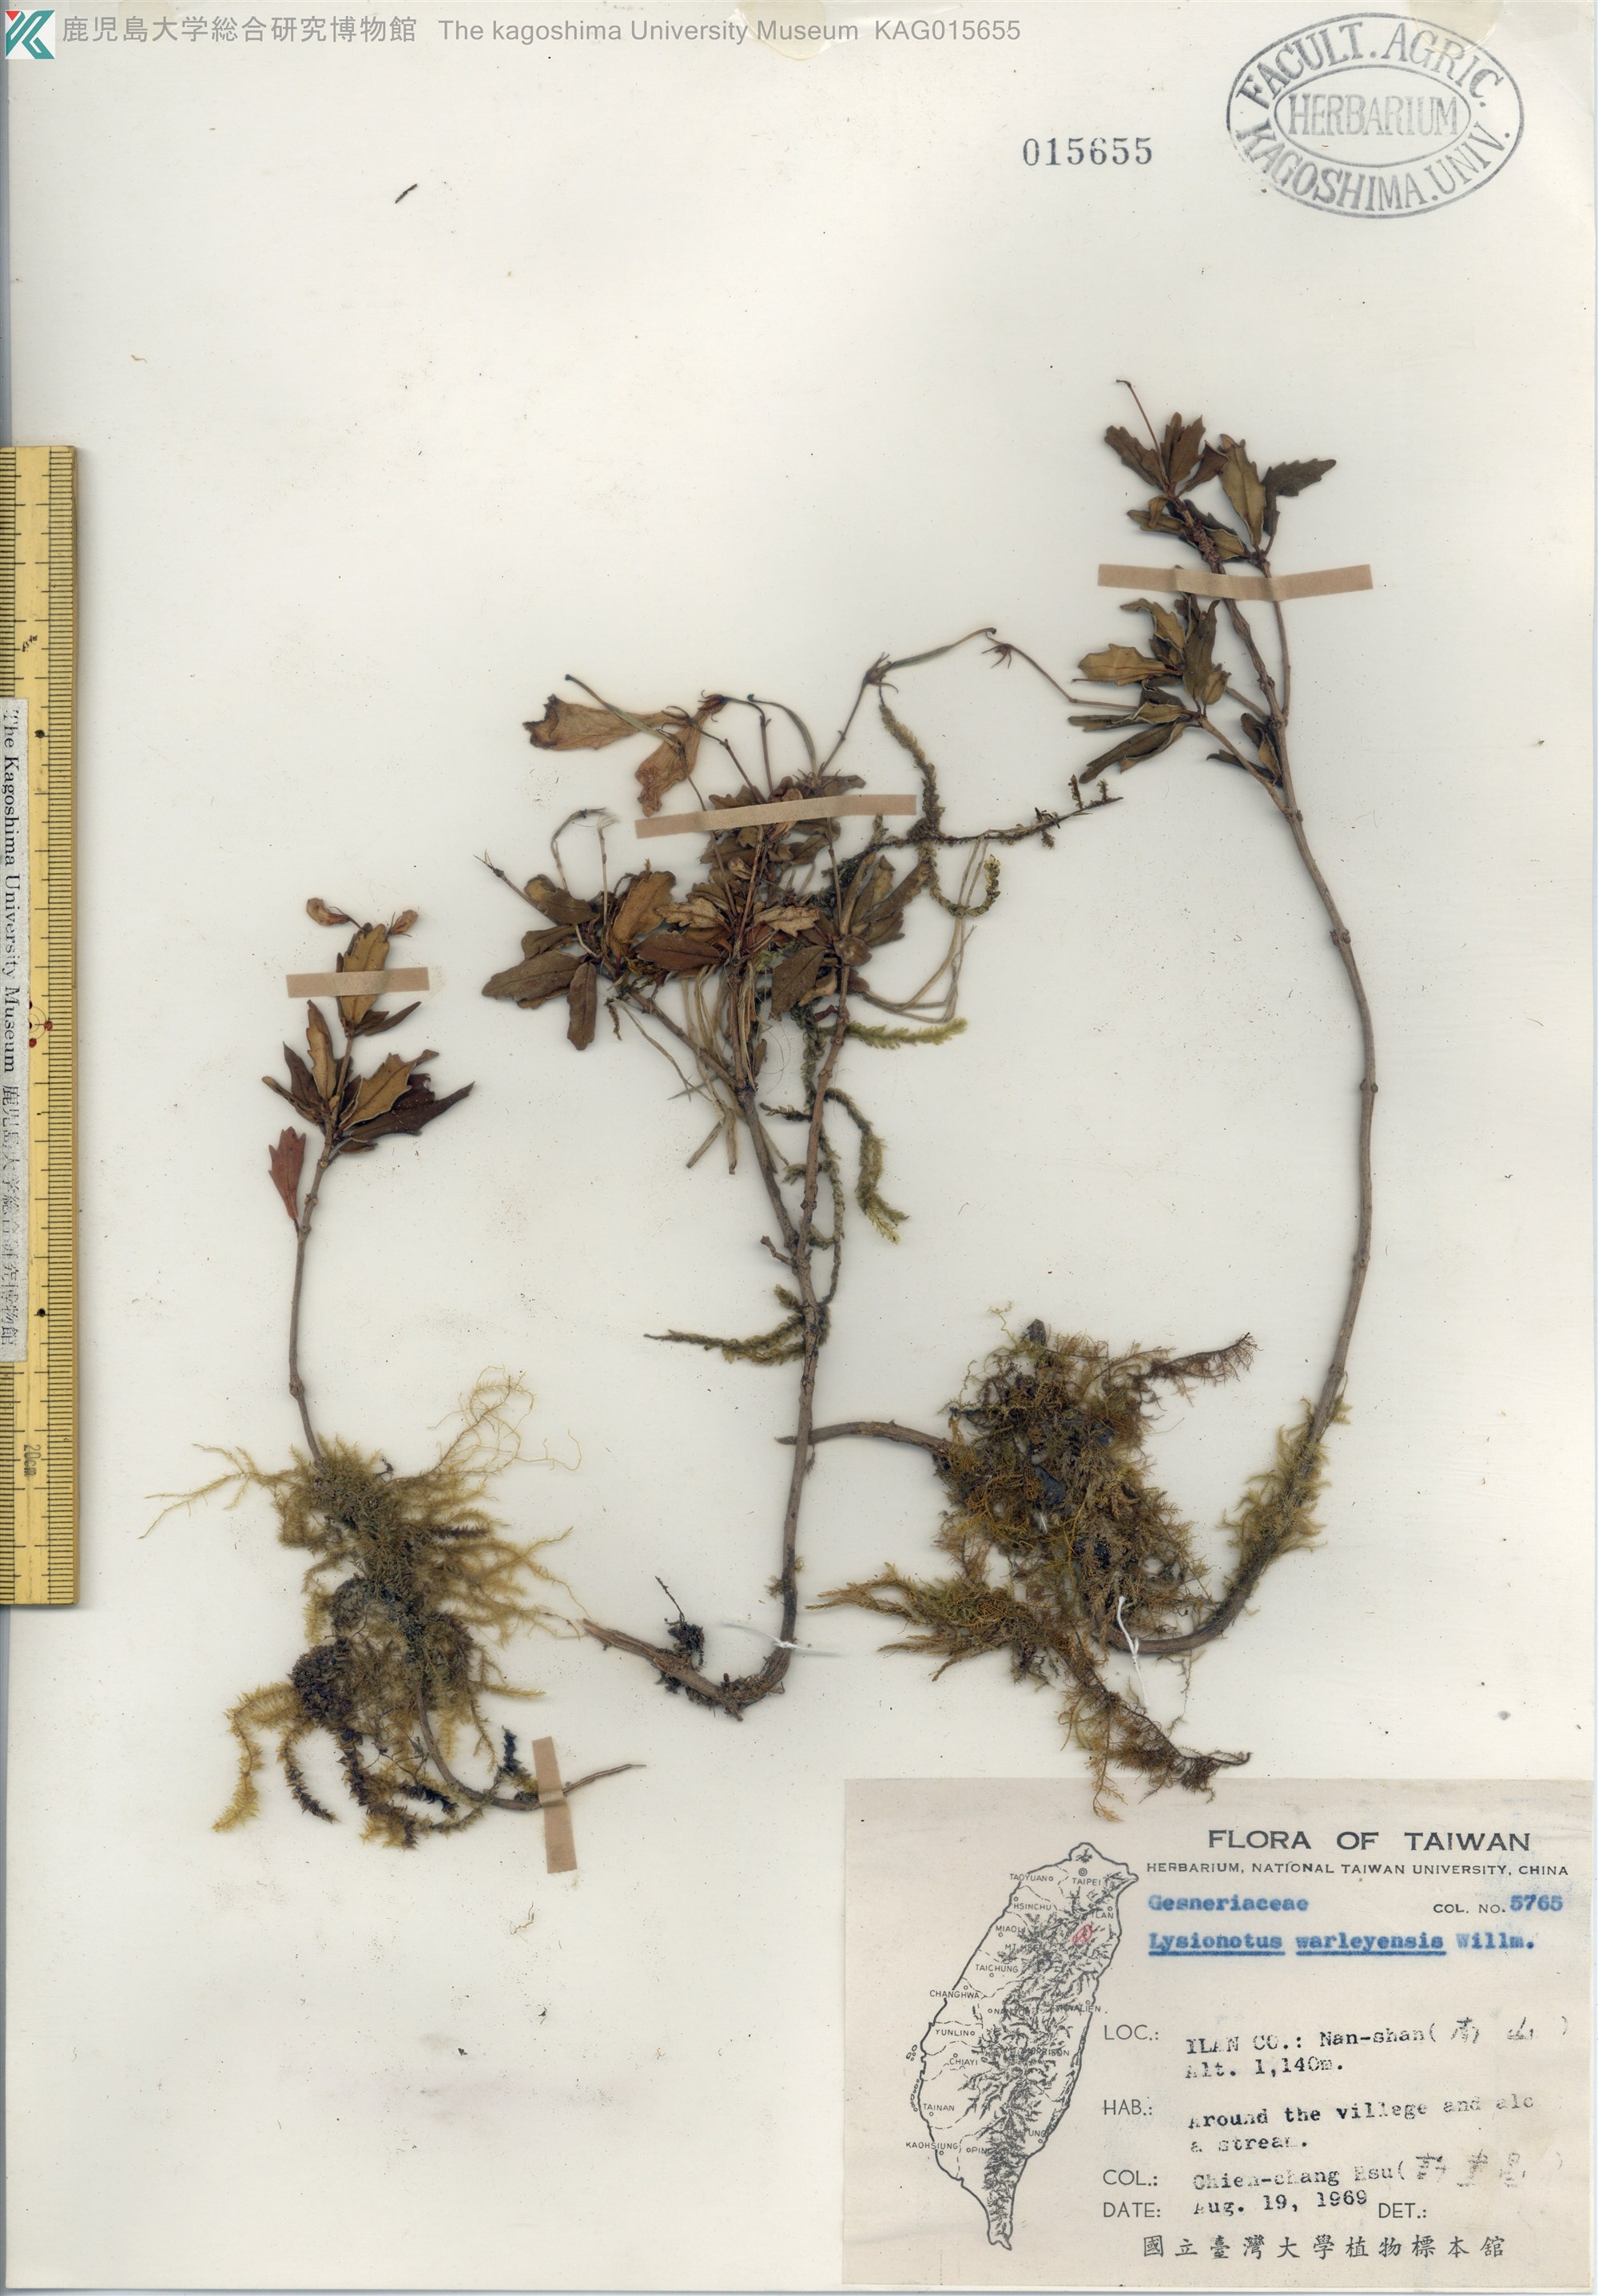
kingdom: Plantae
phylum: Tracheophyta
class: Magnoliopsida
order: Lamiales
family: Gesneriaceae
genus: Lysionotus
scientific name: Lysionotus pauciflorus
